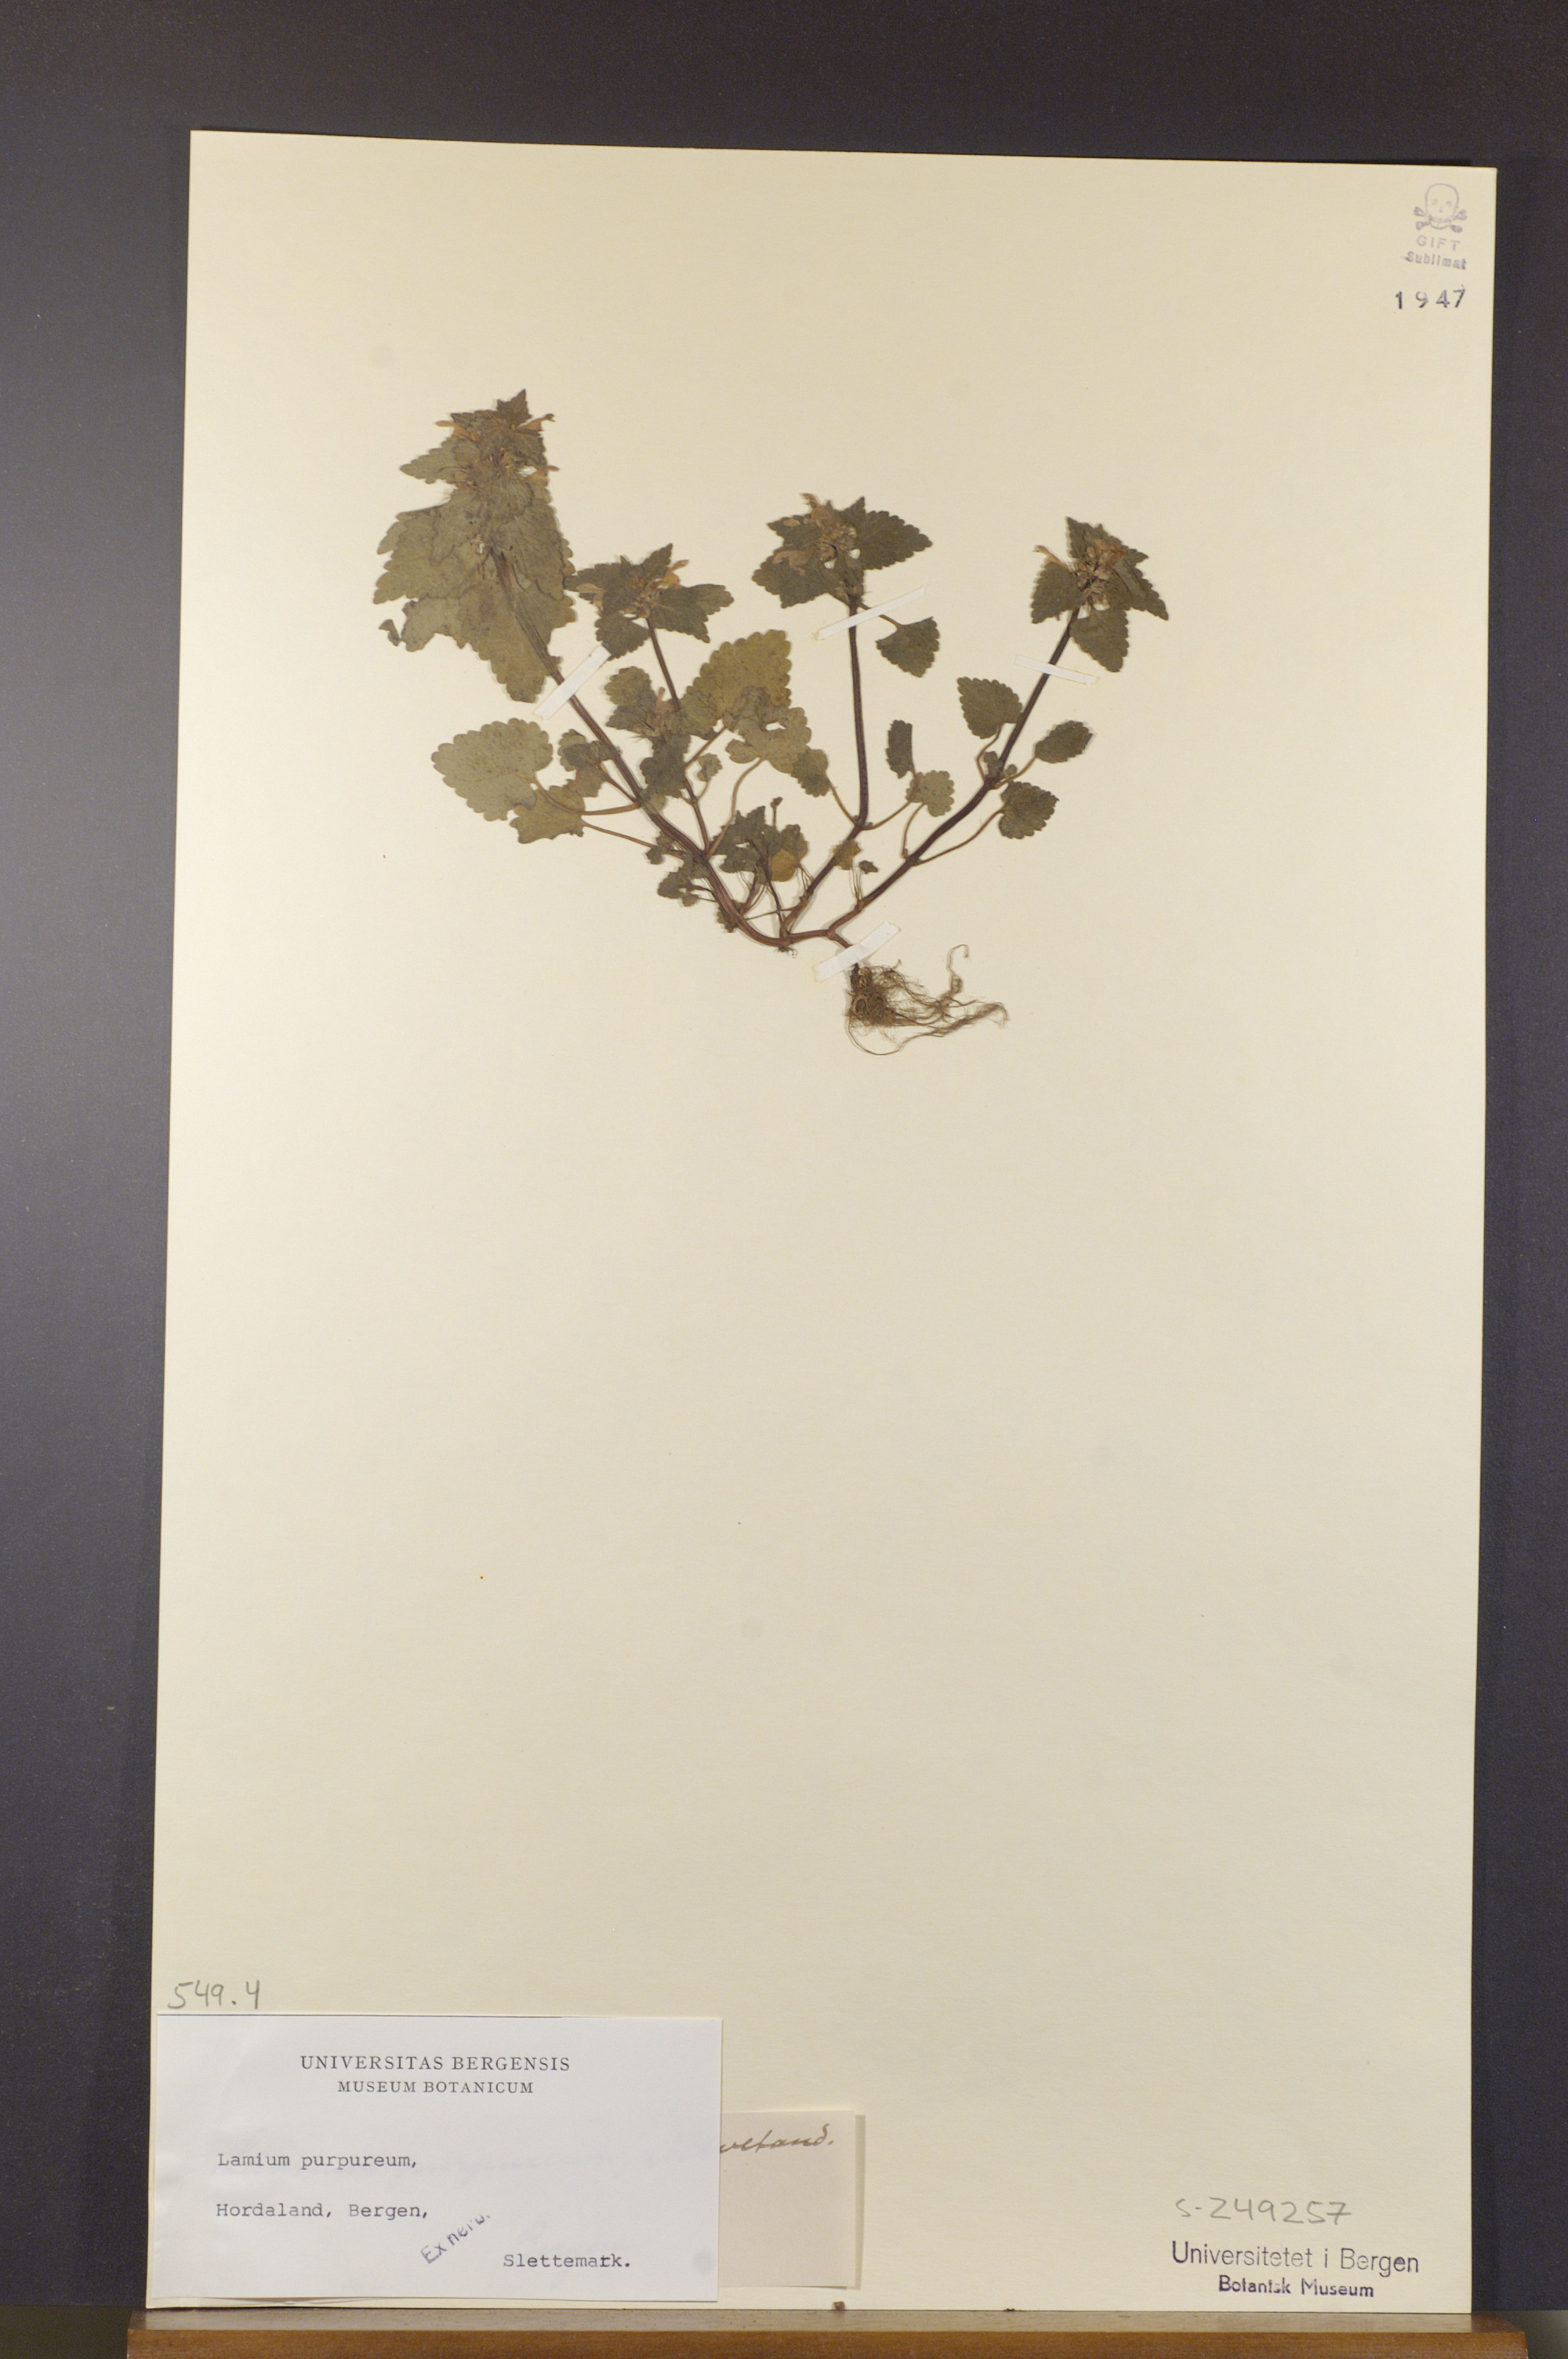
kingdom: Plantae
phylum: Tracheophyta
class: Magnoliopsida
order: Lamiales
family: Lamiaceae
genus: Lamium
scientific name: Lamium purpureum
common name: Red dead-nettle
